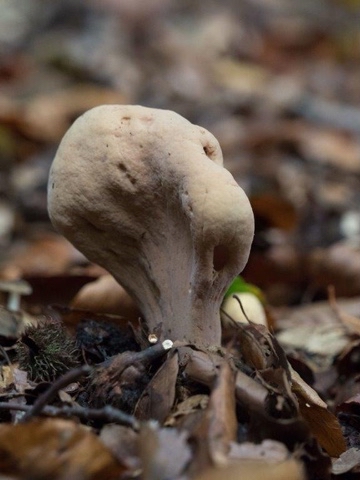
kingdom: Fungi
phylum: Basidiomycota
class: Agaricomycetes
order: Gomphales
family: Clavariadelphaceae
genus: Clavariadelphus
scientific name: Clavariadelphus pistillaris
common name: herkules-kæmpekølle
